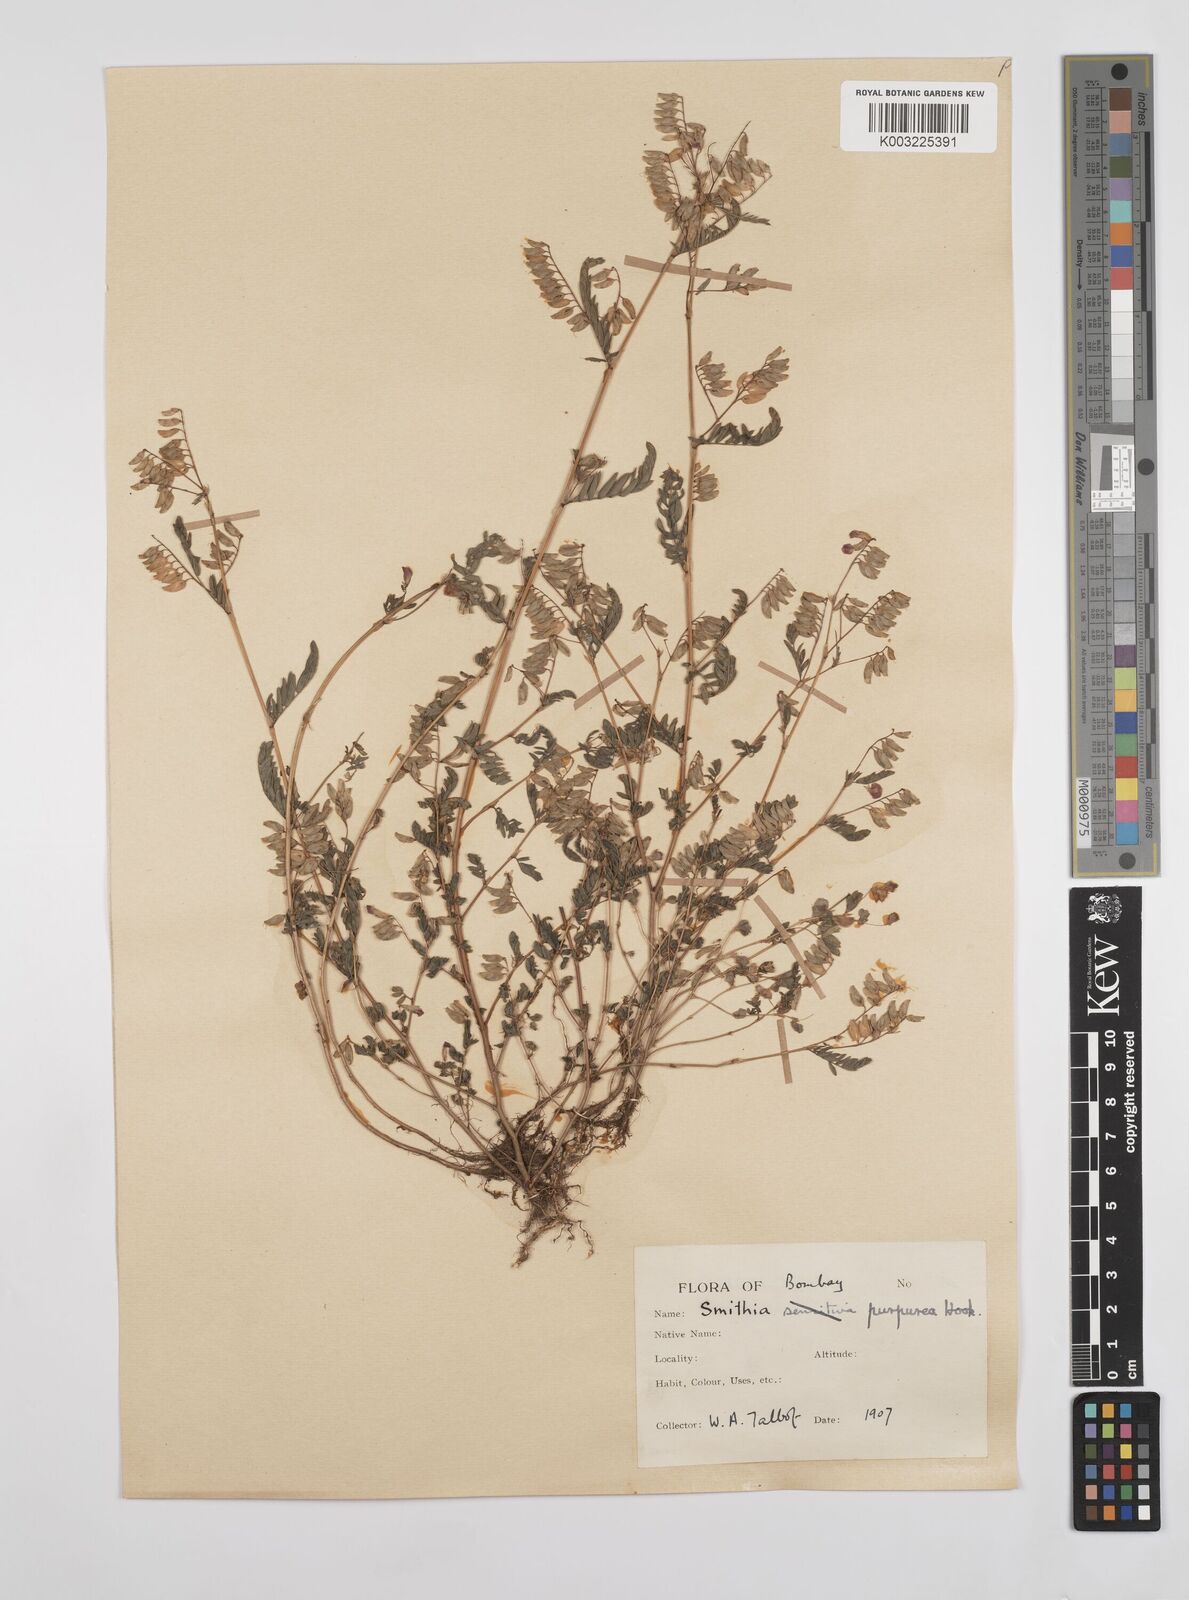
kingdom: Plantae
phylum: Tracheophyta
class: Magnoliopsida
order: Fabales
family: Fabaceae
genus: Smithia
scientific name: Smithia purpurea
